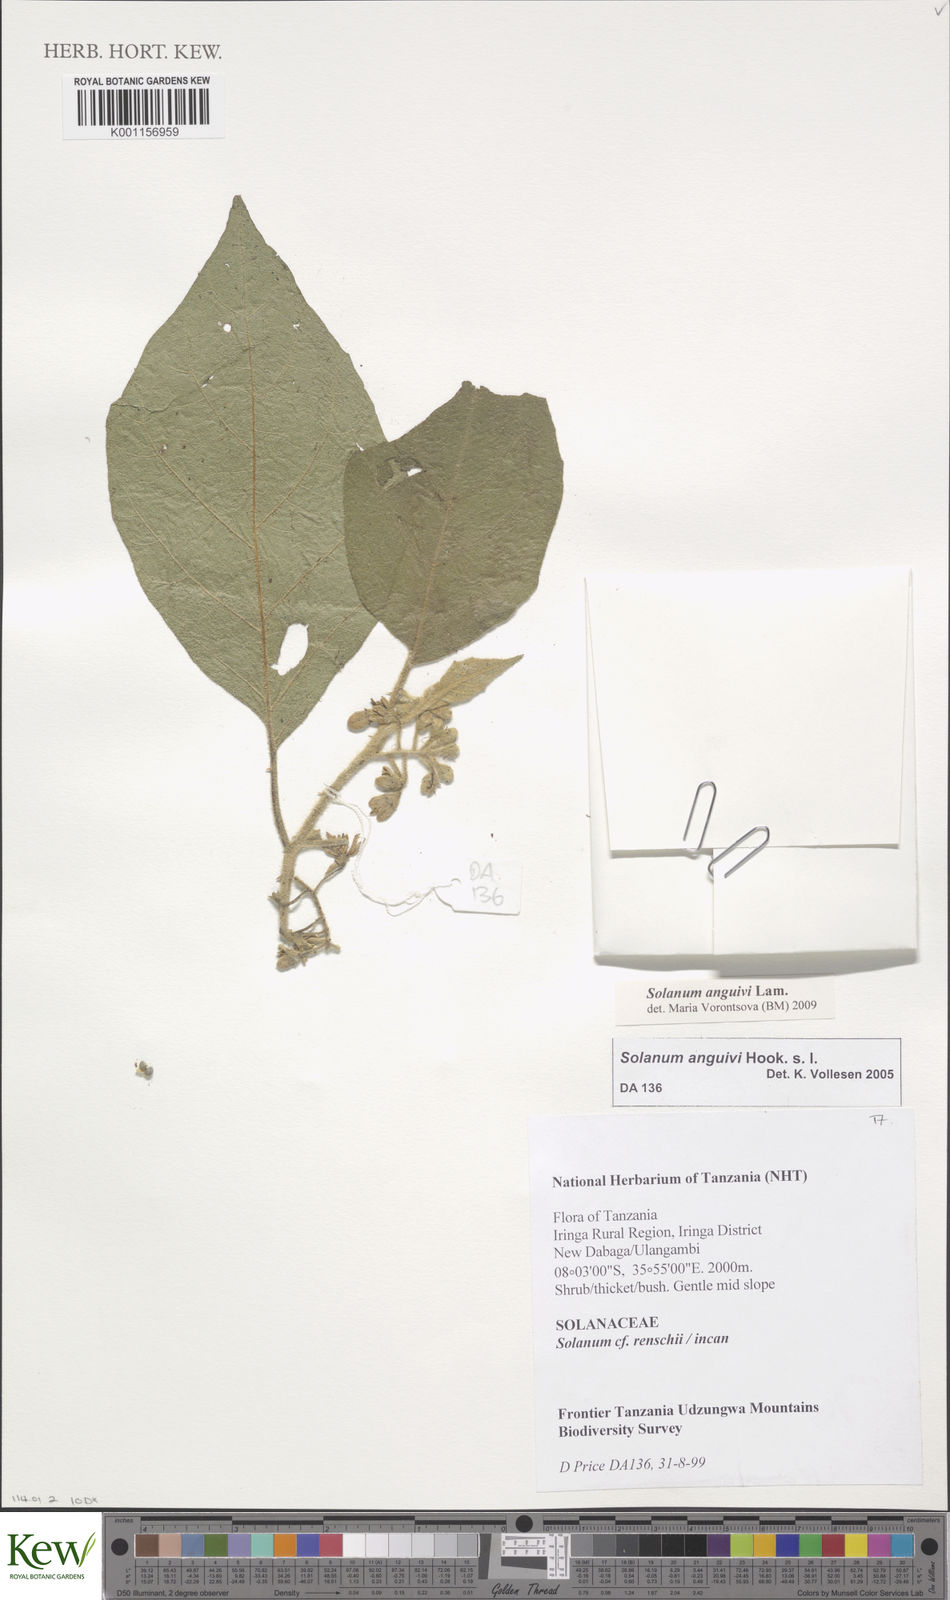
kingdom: Plantae
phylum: Tracheophyta
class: Magnoliopsida
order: Solanales
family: Solanaceae
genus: Solanum
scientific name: Solanum anguivi
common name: Forest bitterberry
